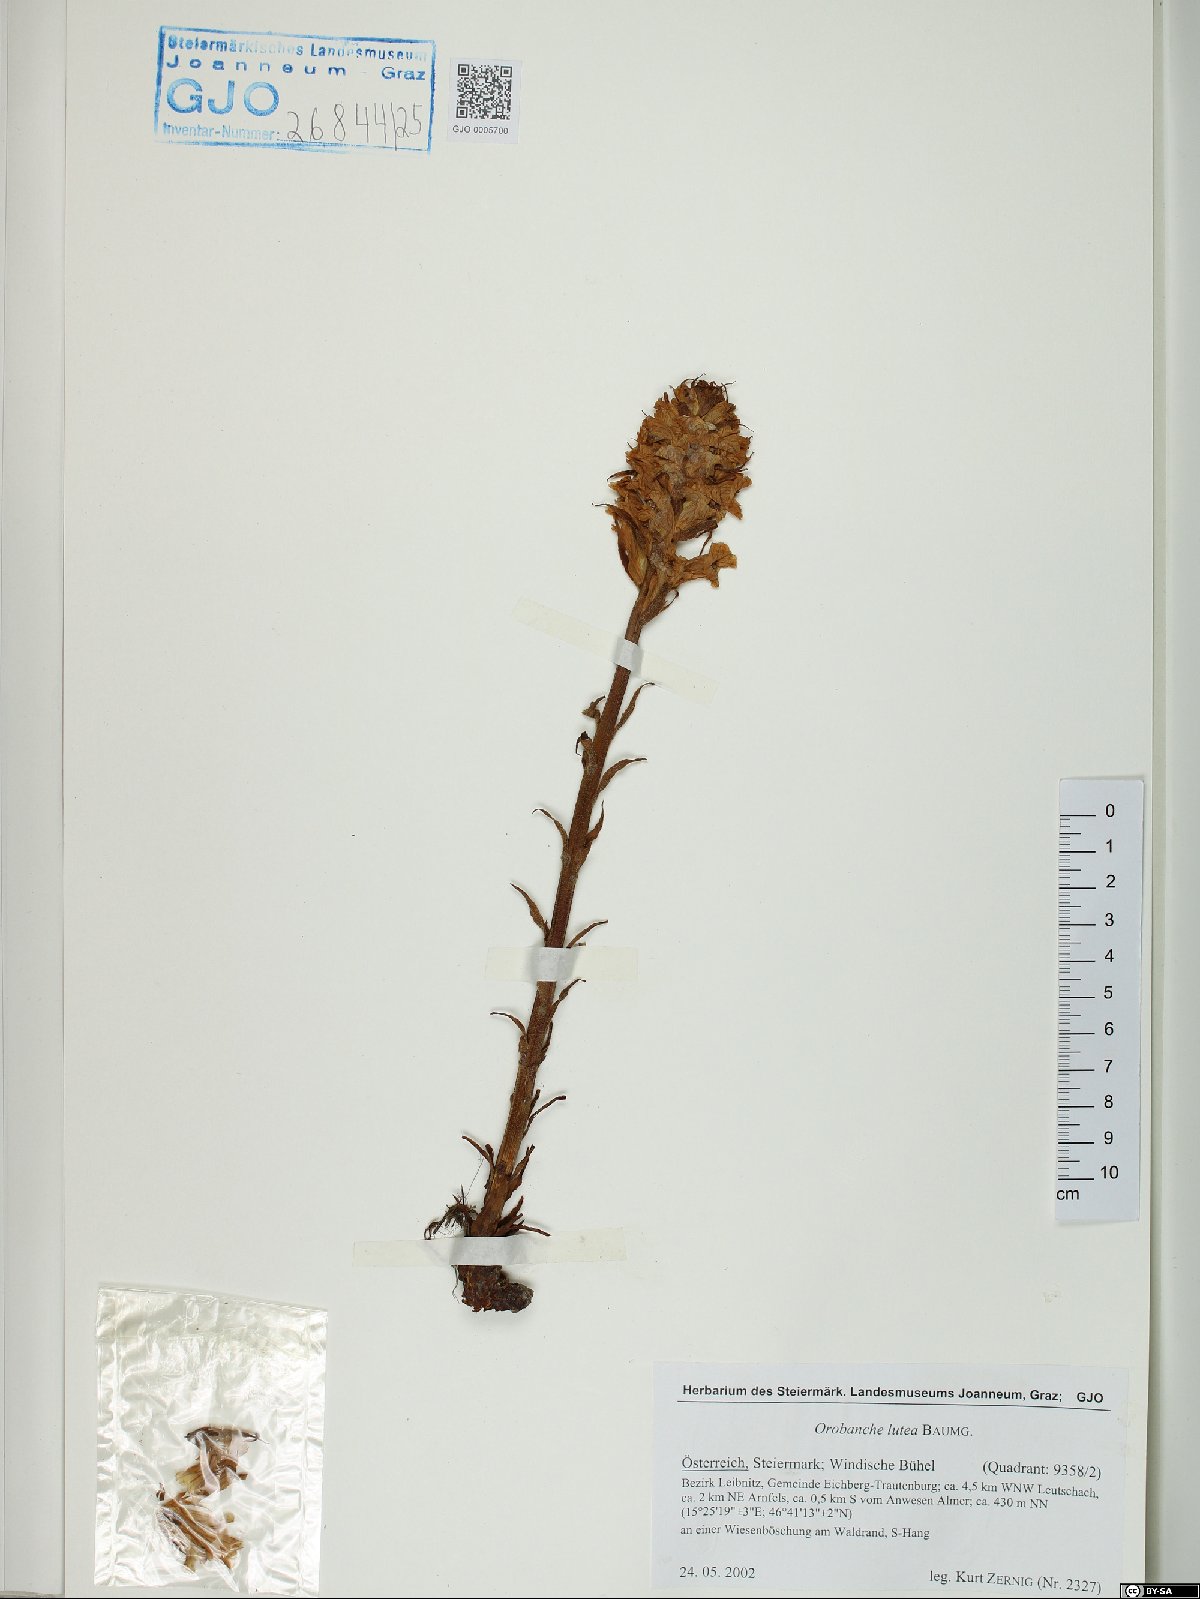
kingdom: Plantae
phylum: Tracheophyta
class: Magnoliopsida
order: Lamiales
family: Orobanchaceae
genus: Orobanche
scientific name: Orobanche lutea
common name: Yellow broomrape
